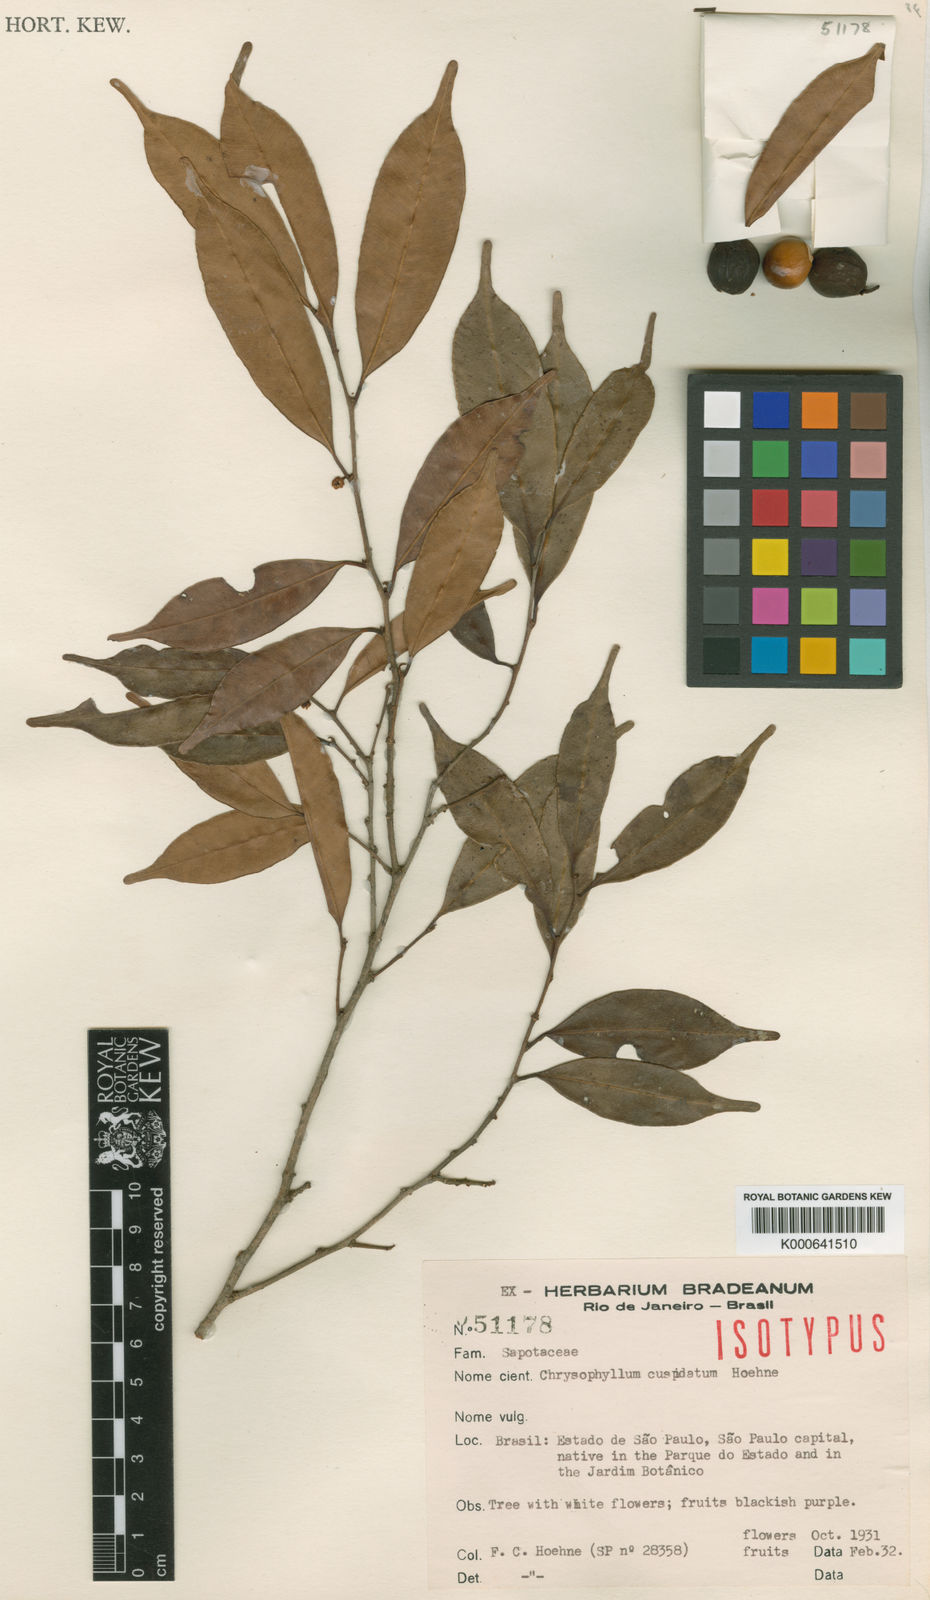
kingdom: Plantae
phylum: Tracheophyta
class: Magnoliopsida
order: Ericales
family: Sapotaceae
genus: Diploon
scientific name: Diploon cuspidatum
